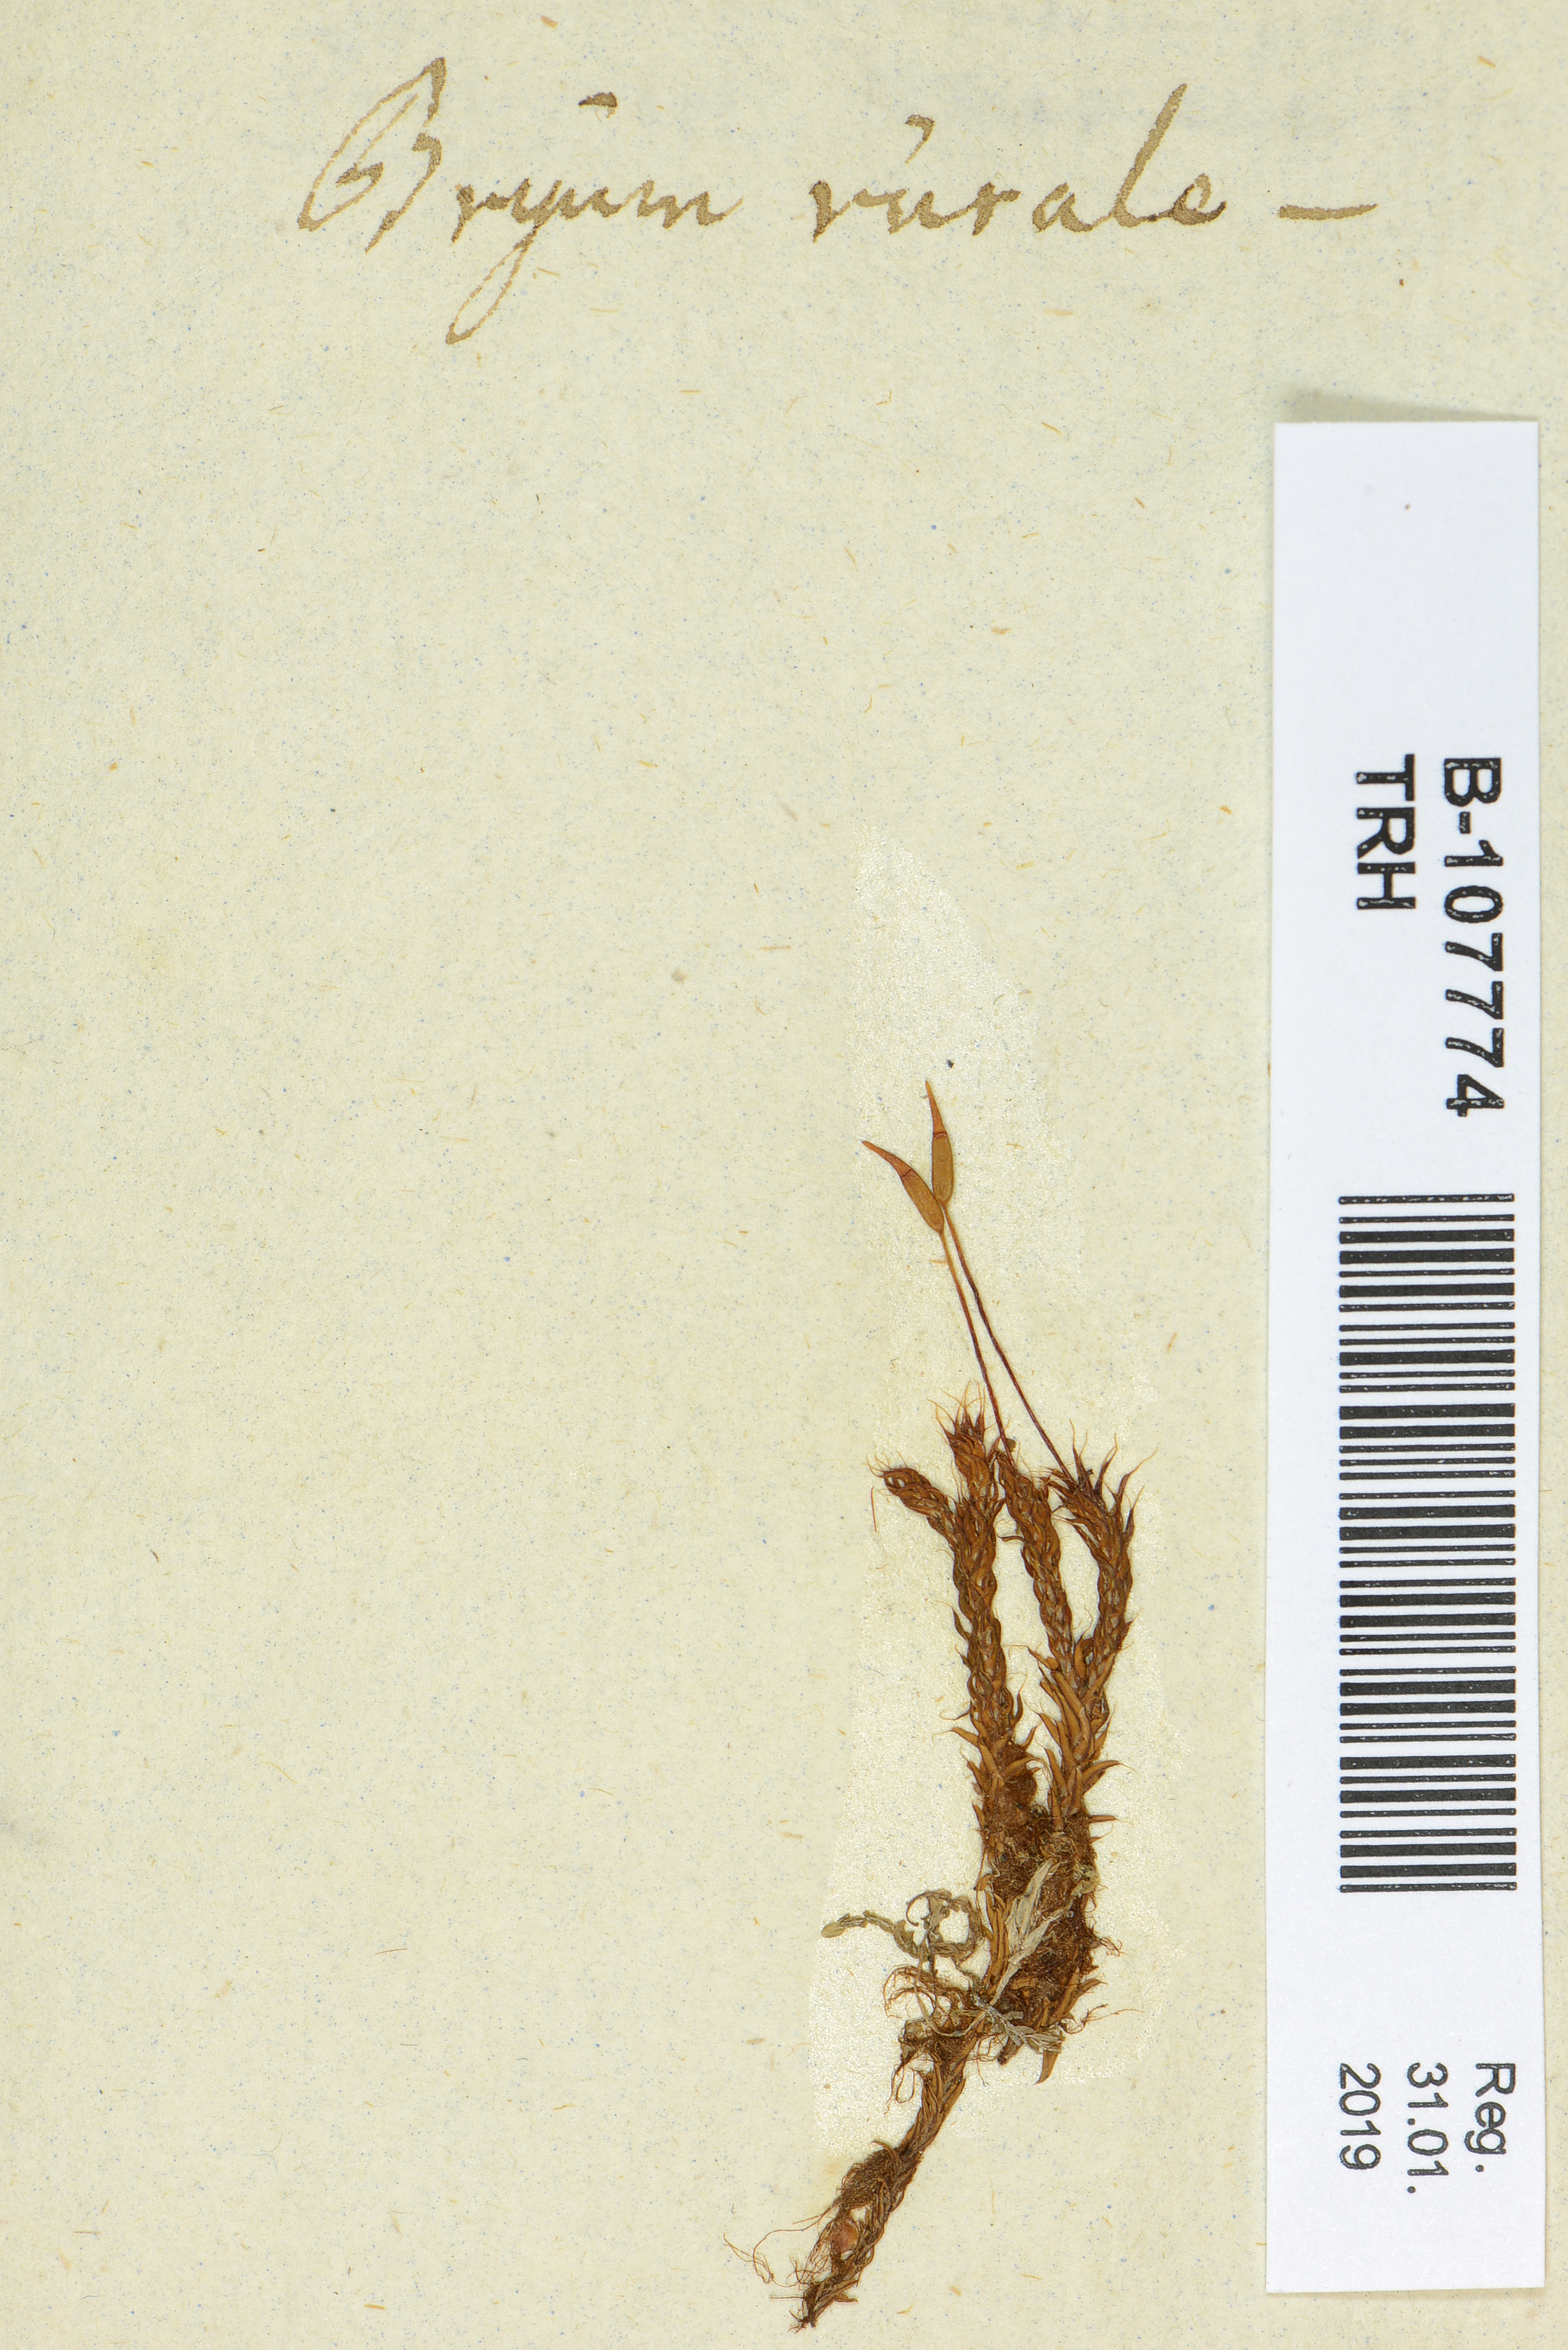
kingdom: Plantae
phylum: Bryophyta
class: Bryopsida
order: Pottiales
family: Pottiaceae
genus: Syntrichia
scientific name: Syntrichia ruralis
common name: Sidewalk screw moss
